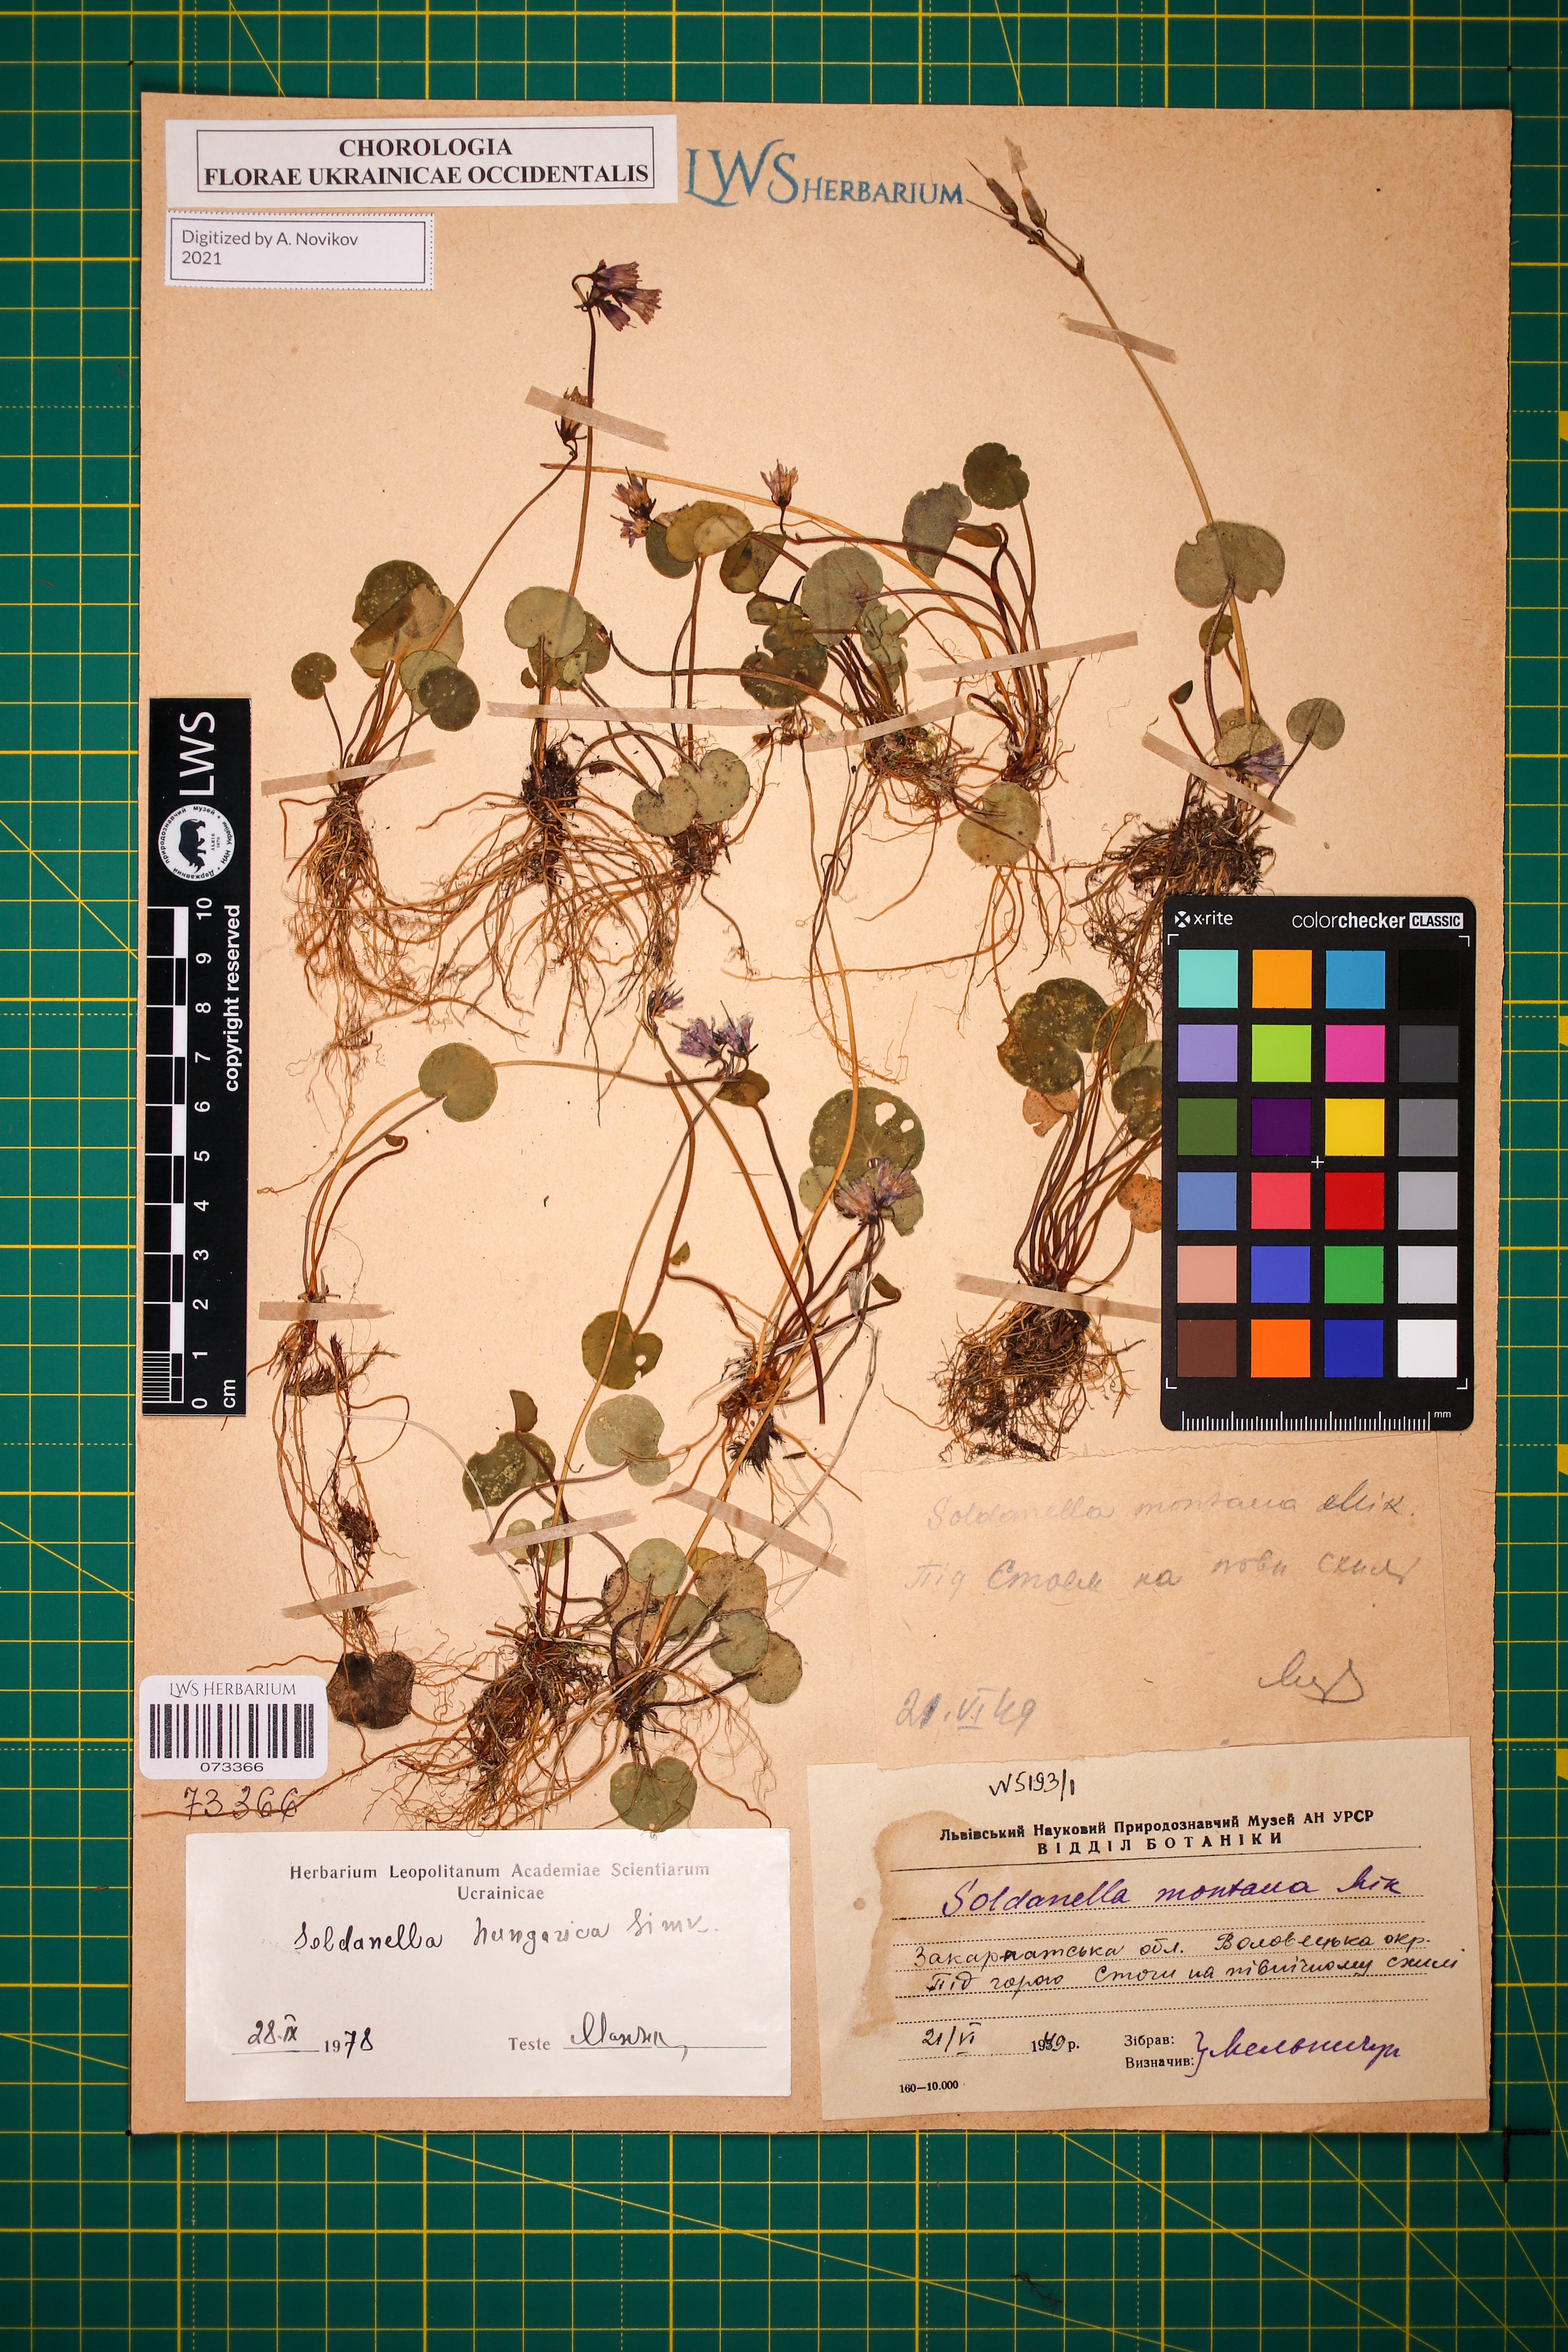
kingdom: Plantae
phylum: Tracheophyta
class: Magnoliopsida
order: Ericales
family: Primulaceae
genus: Soldanella
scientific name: Soldanella hungarica
